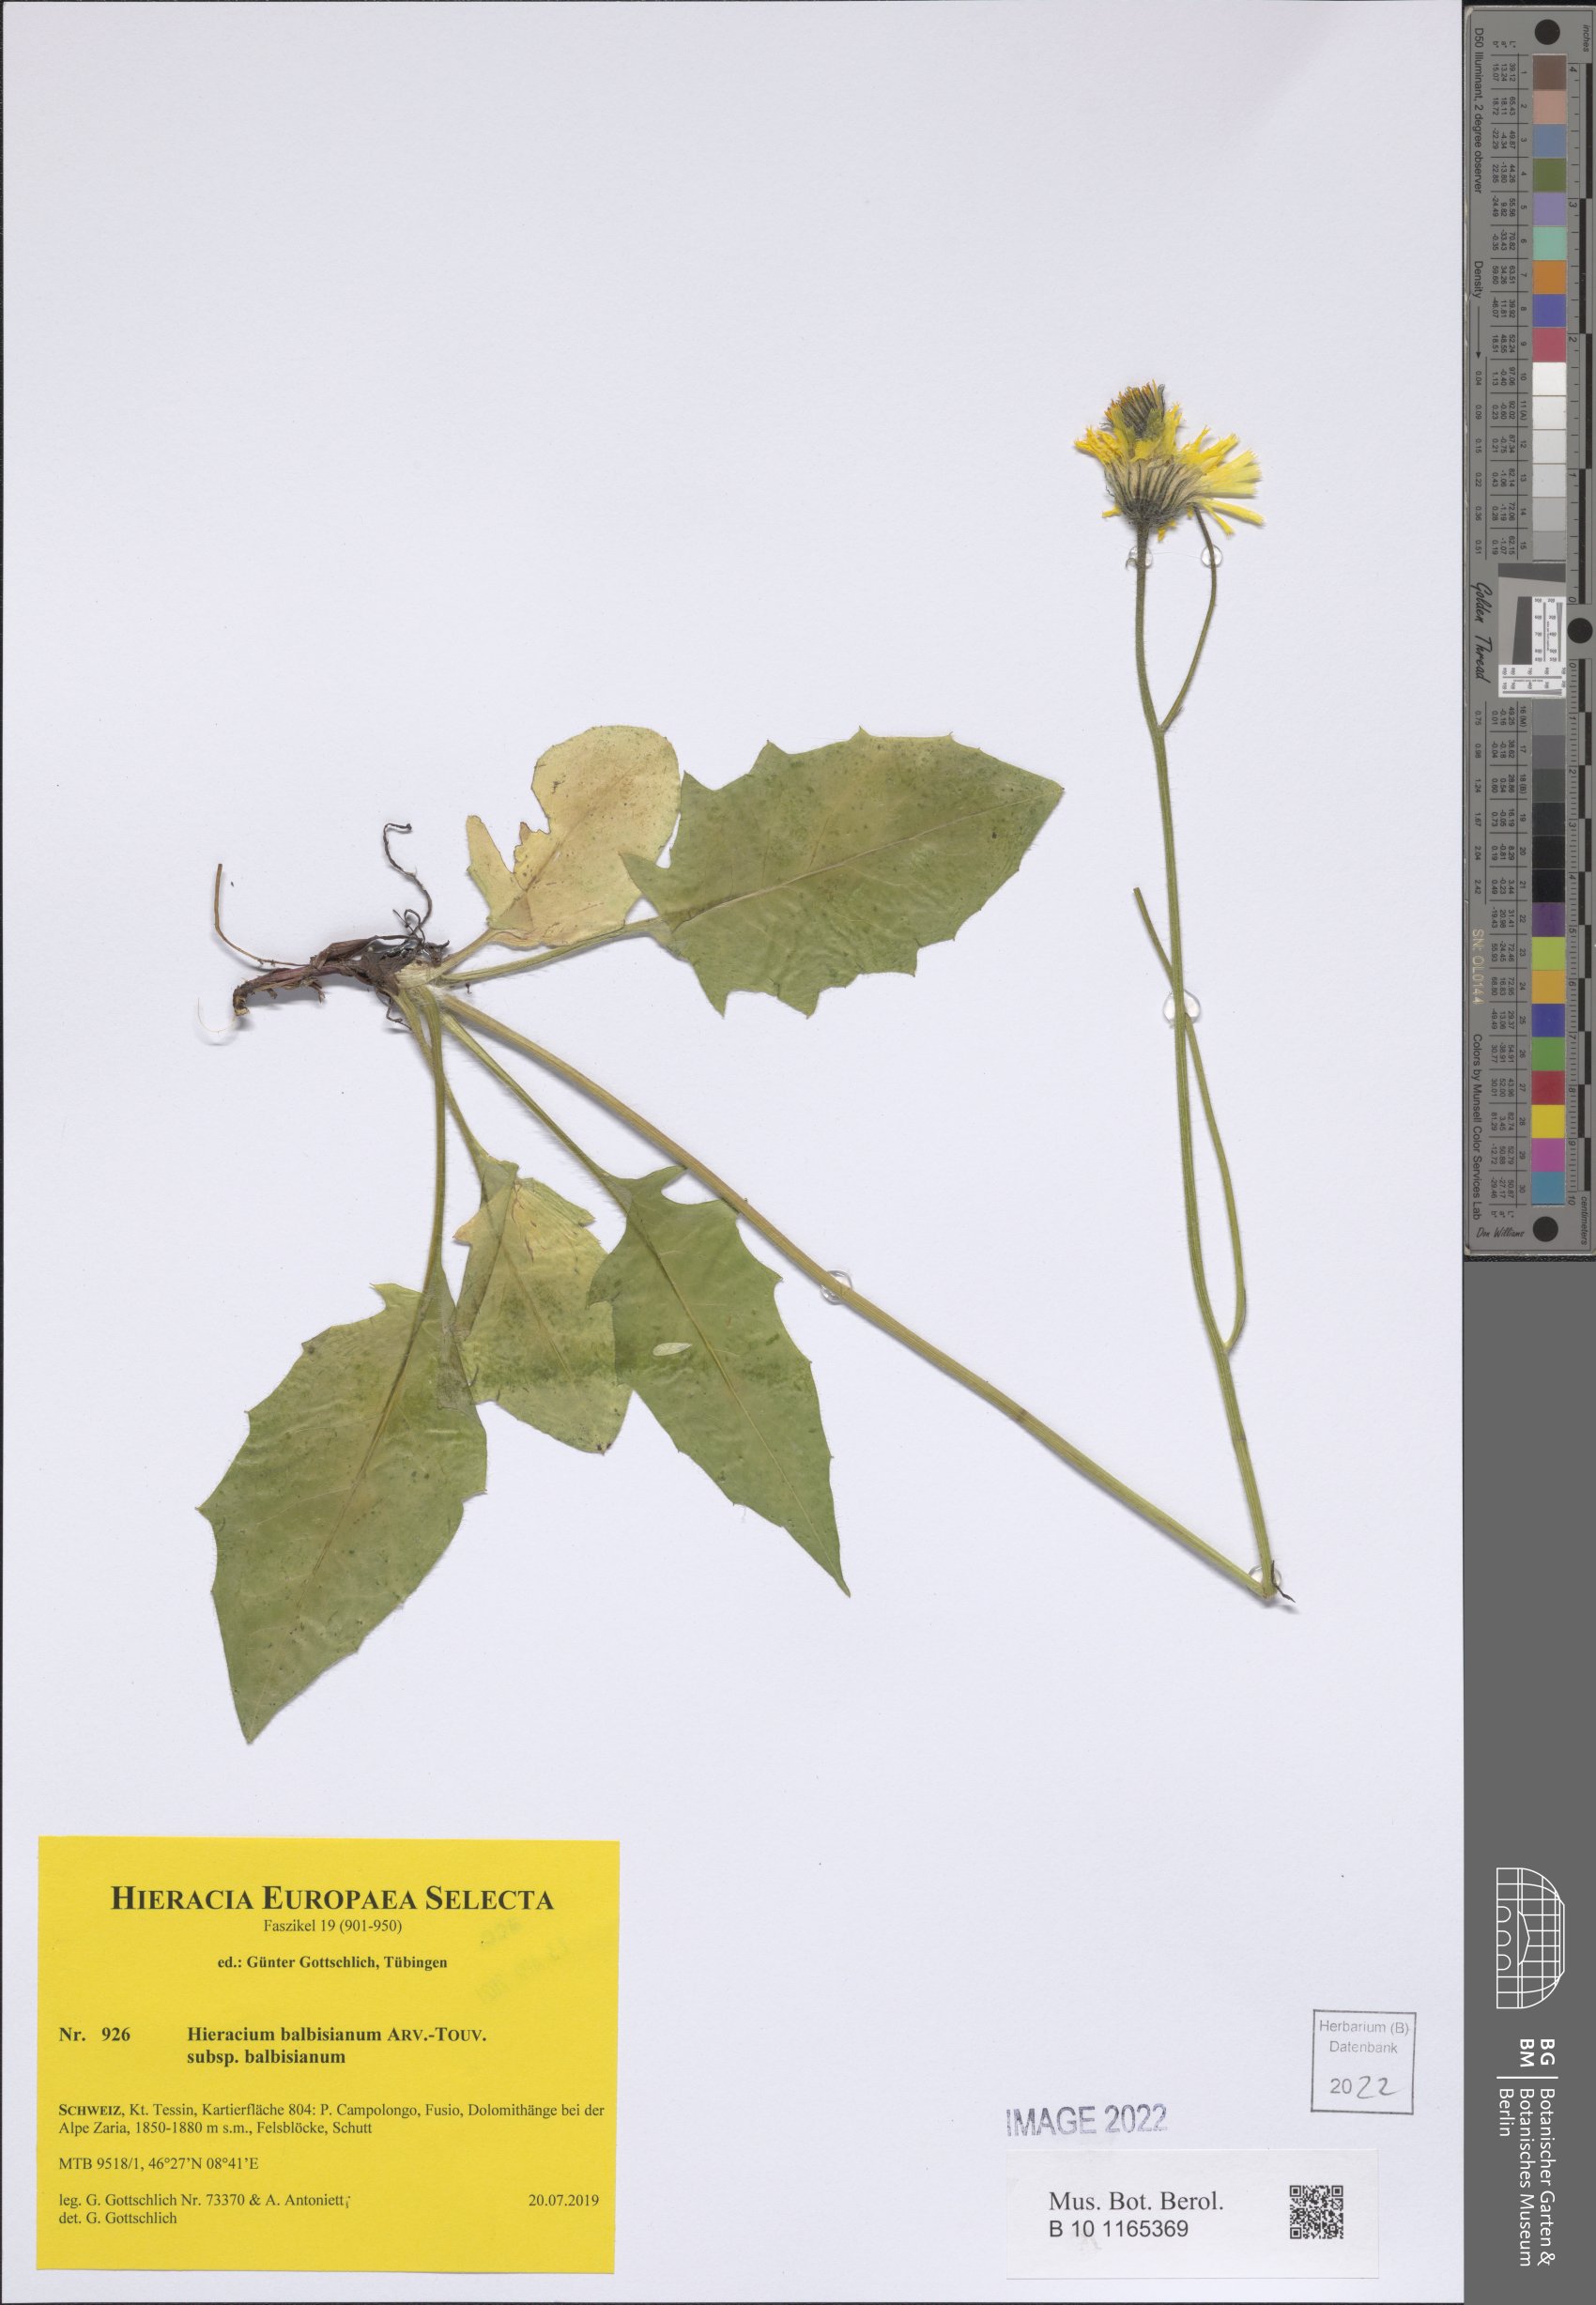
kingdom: Plantae
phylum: Tracheophyta
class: Magnoliopsida
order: Asterales
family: Asteraceae
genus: Hieracium
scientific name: Hieracium balbisianum
